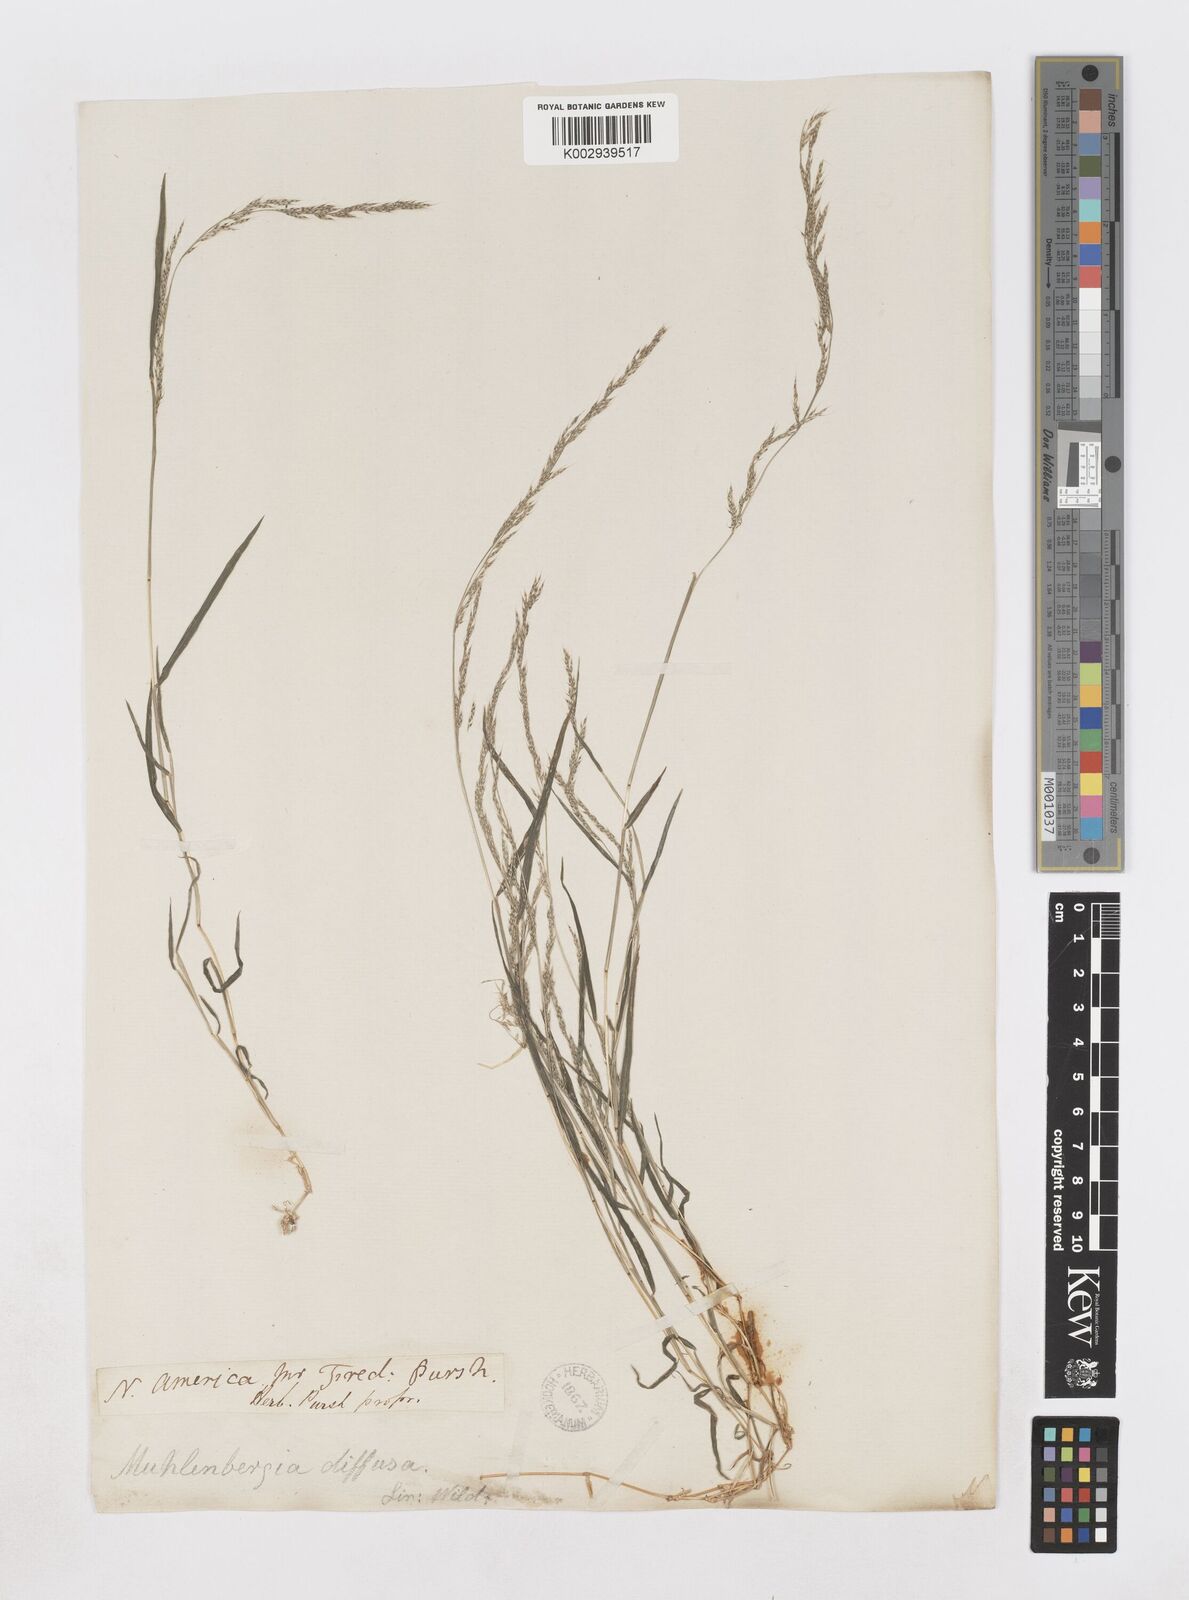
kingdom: Plantae
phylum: Tracheophyta
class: Liliopsida
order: Poales
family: Poaceae
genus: Muhlenbergia
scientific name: Muhlenbergia schreberi
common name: Nimblewill
